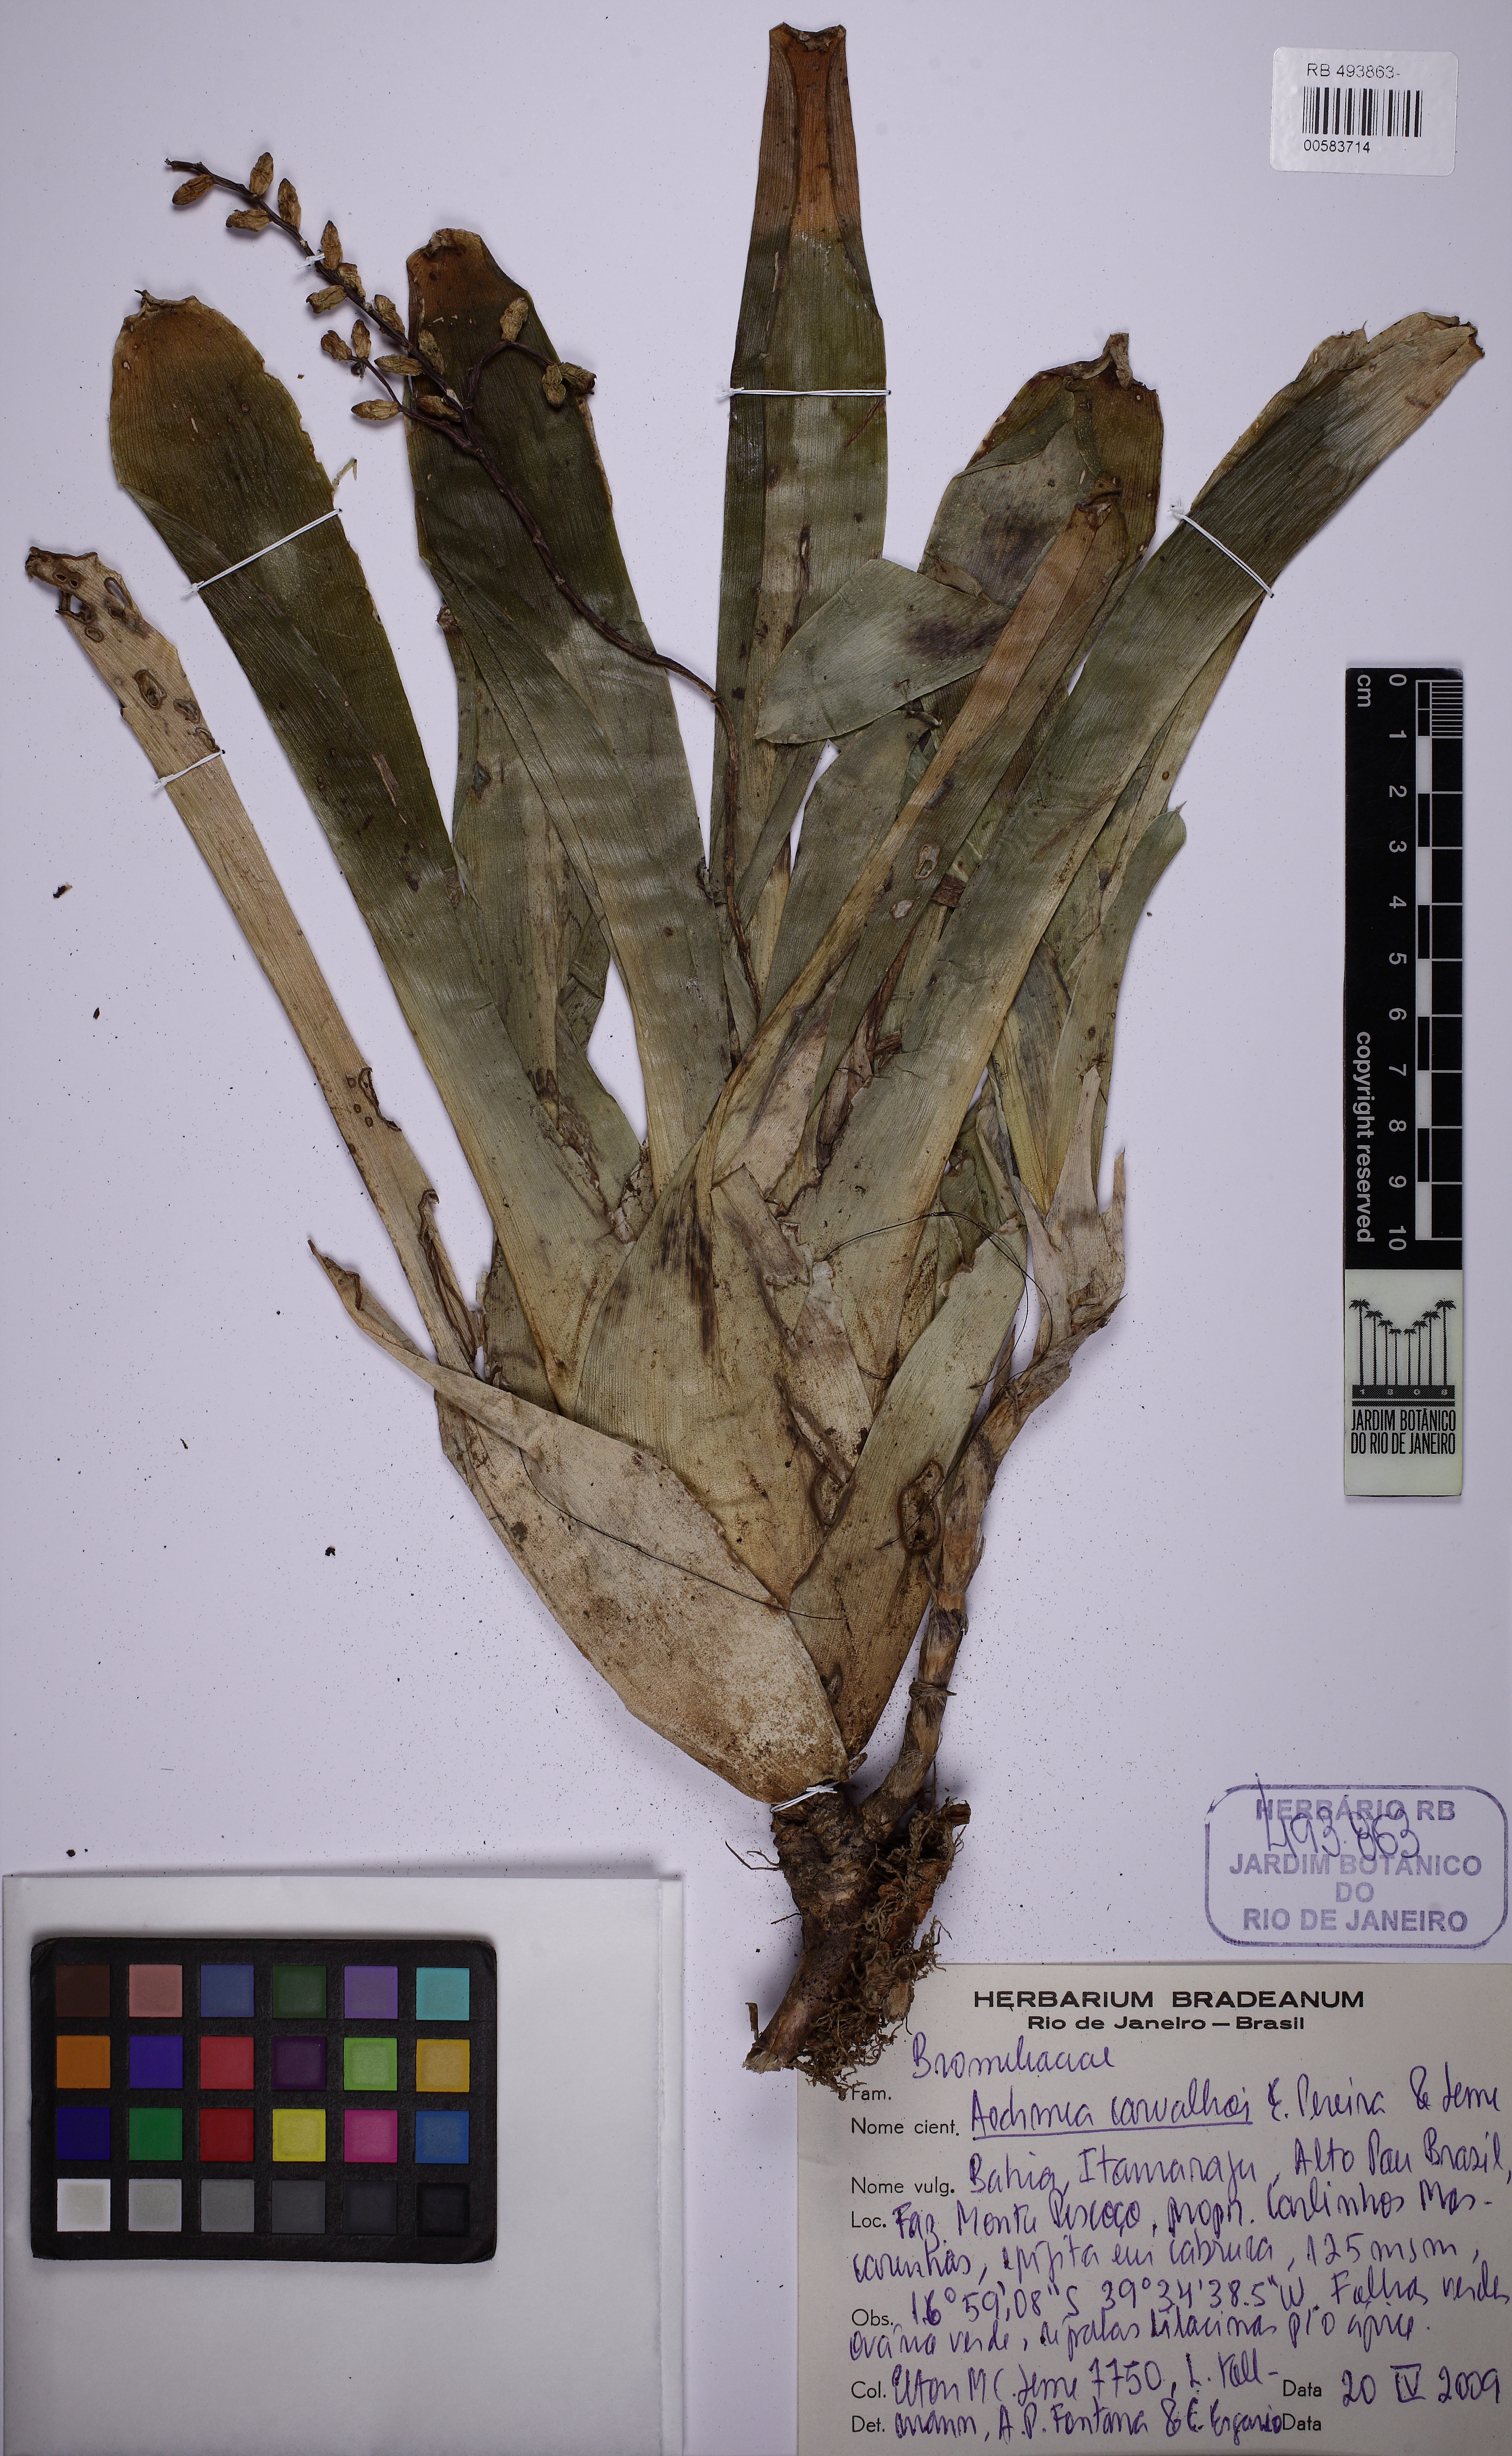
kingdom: Plantae
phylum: Tracheophyta
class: Liliopsida
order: Poales
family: Bromeliaceae
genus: Aechmea
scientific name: Aechmea carvalhoi
